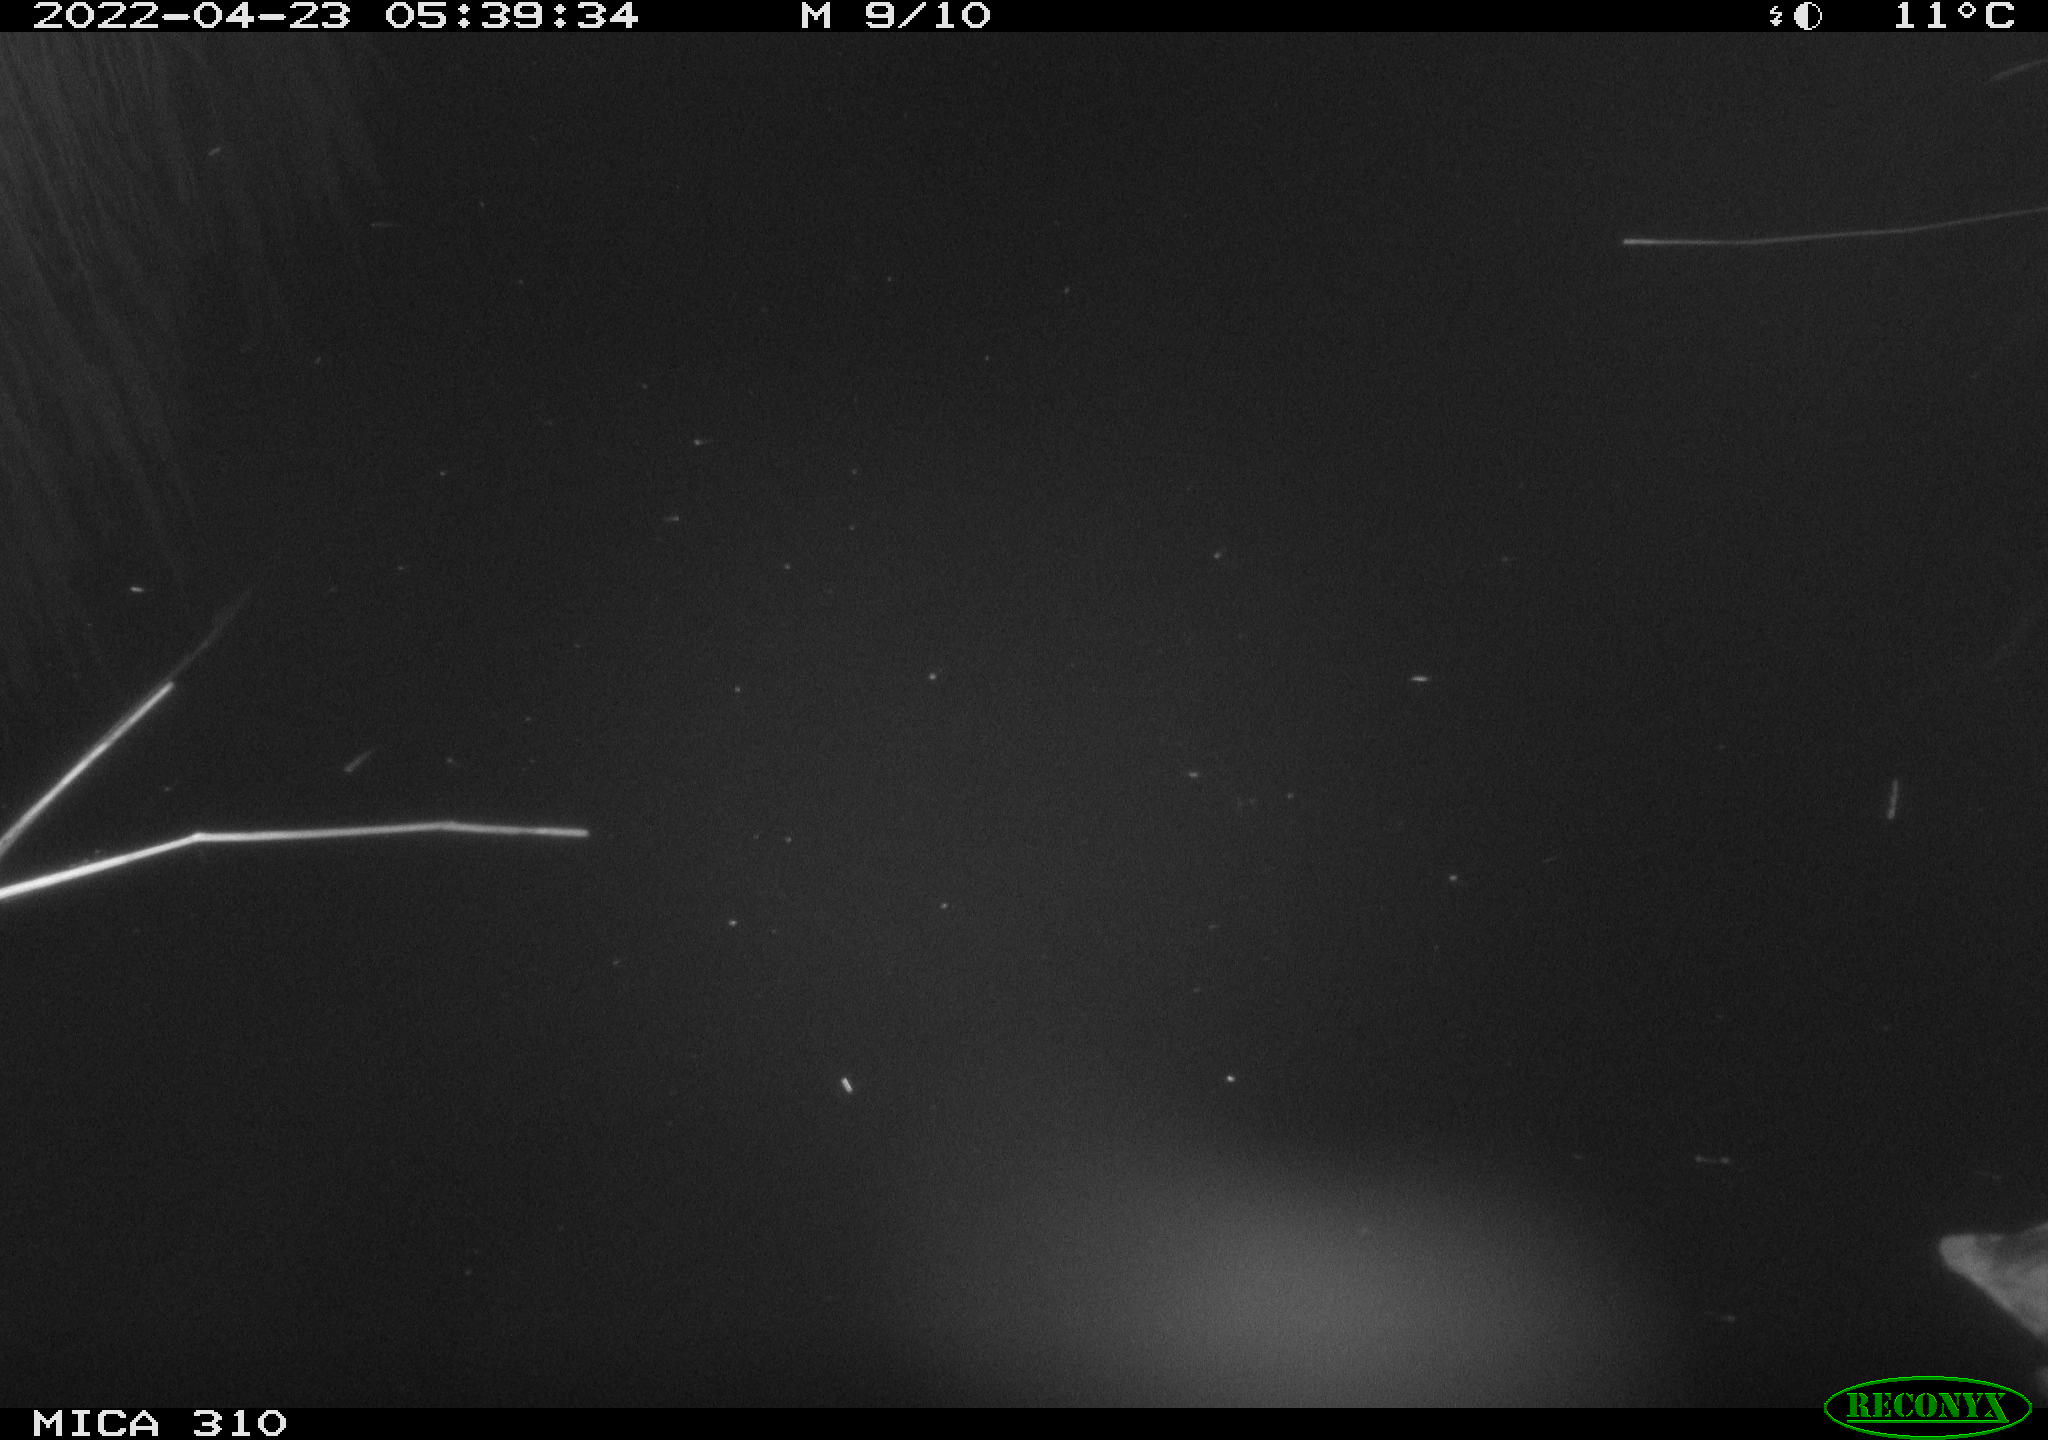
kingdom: Animalia
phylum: Chordata
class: Aves
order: Gruiformes
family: Rallidae
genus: Fulica
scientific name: Fulica atra
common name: Eurasian coot
